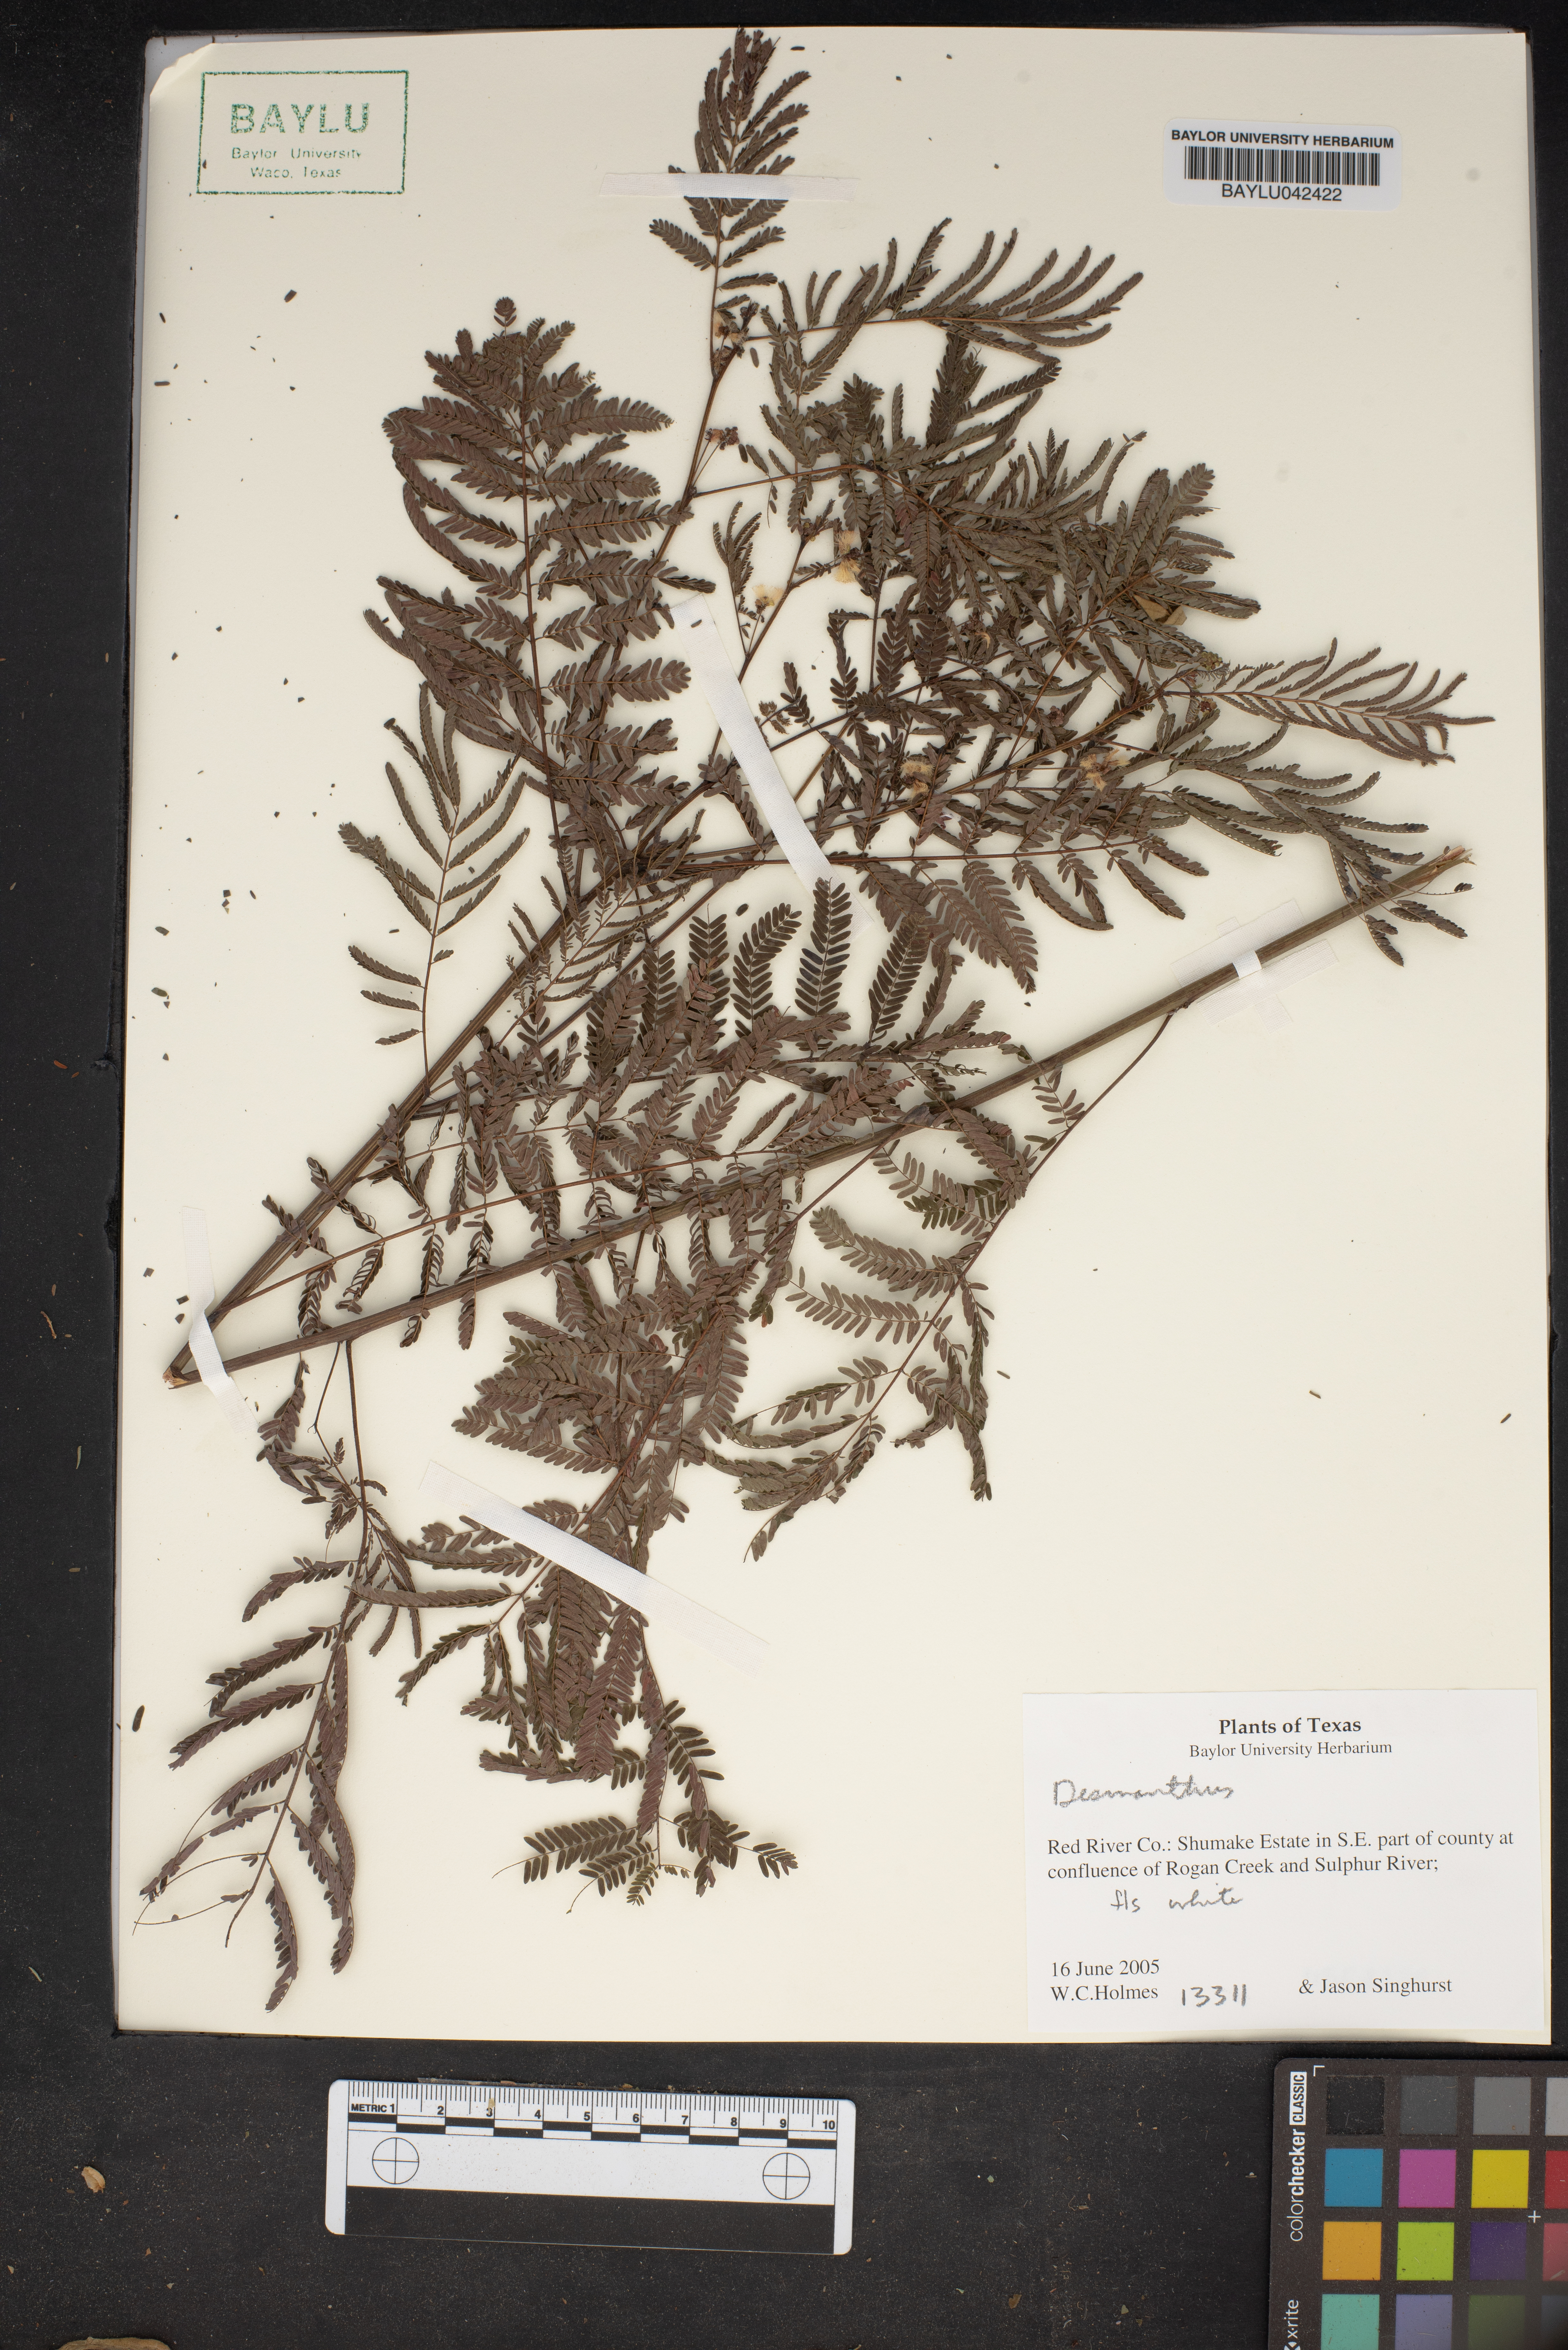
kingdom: Plantae
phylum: Tracheophyta
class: Magnoliopsida
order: Fabales
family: Fabaceae
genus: Desmanthus
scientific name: Desmanthus
